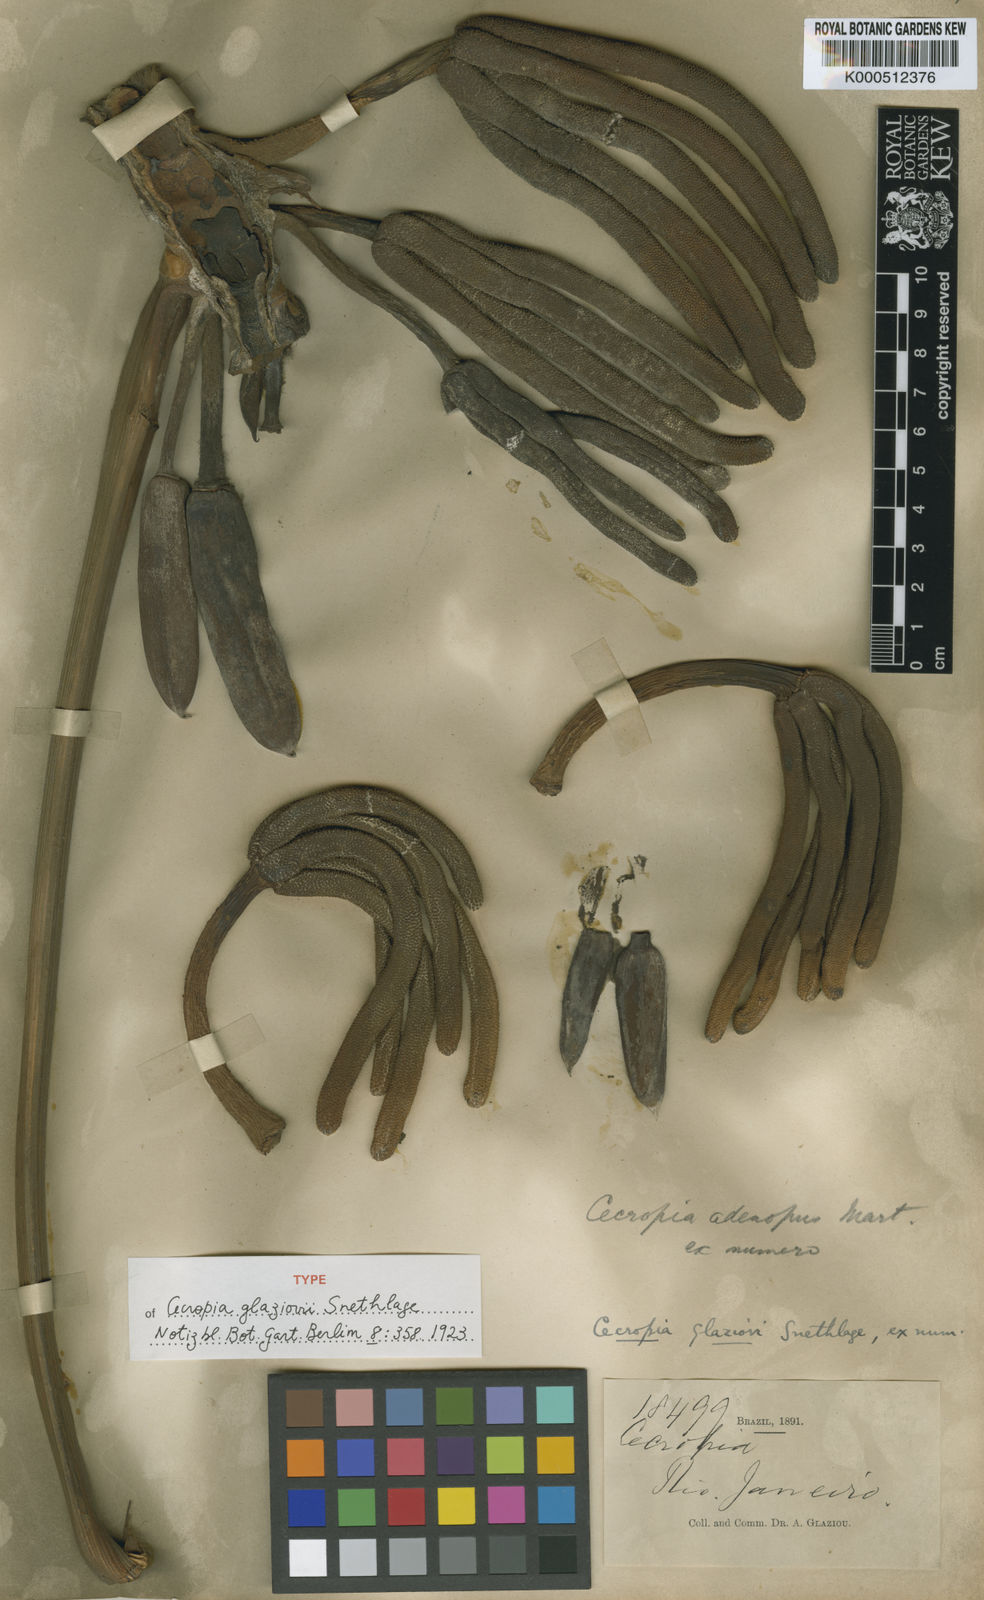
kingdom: Plantae
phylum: Tracheophyta
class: Magnoliopsida
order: Rosales
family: Urticaceae
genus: Cecropia
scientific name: Cecropia glaziovii
